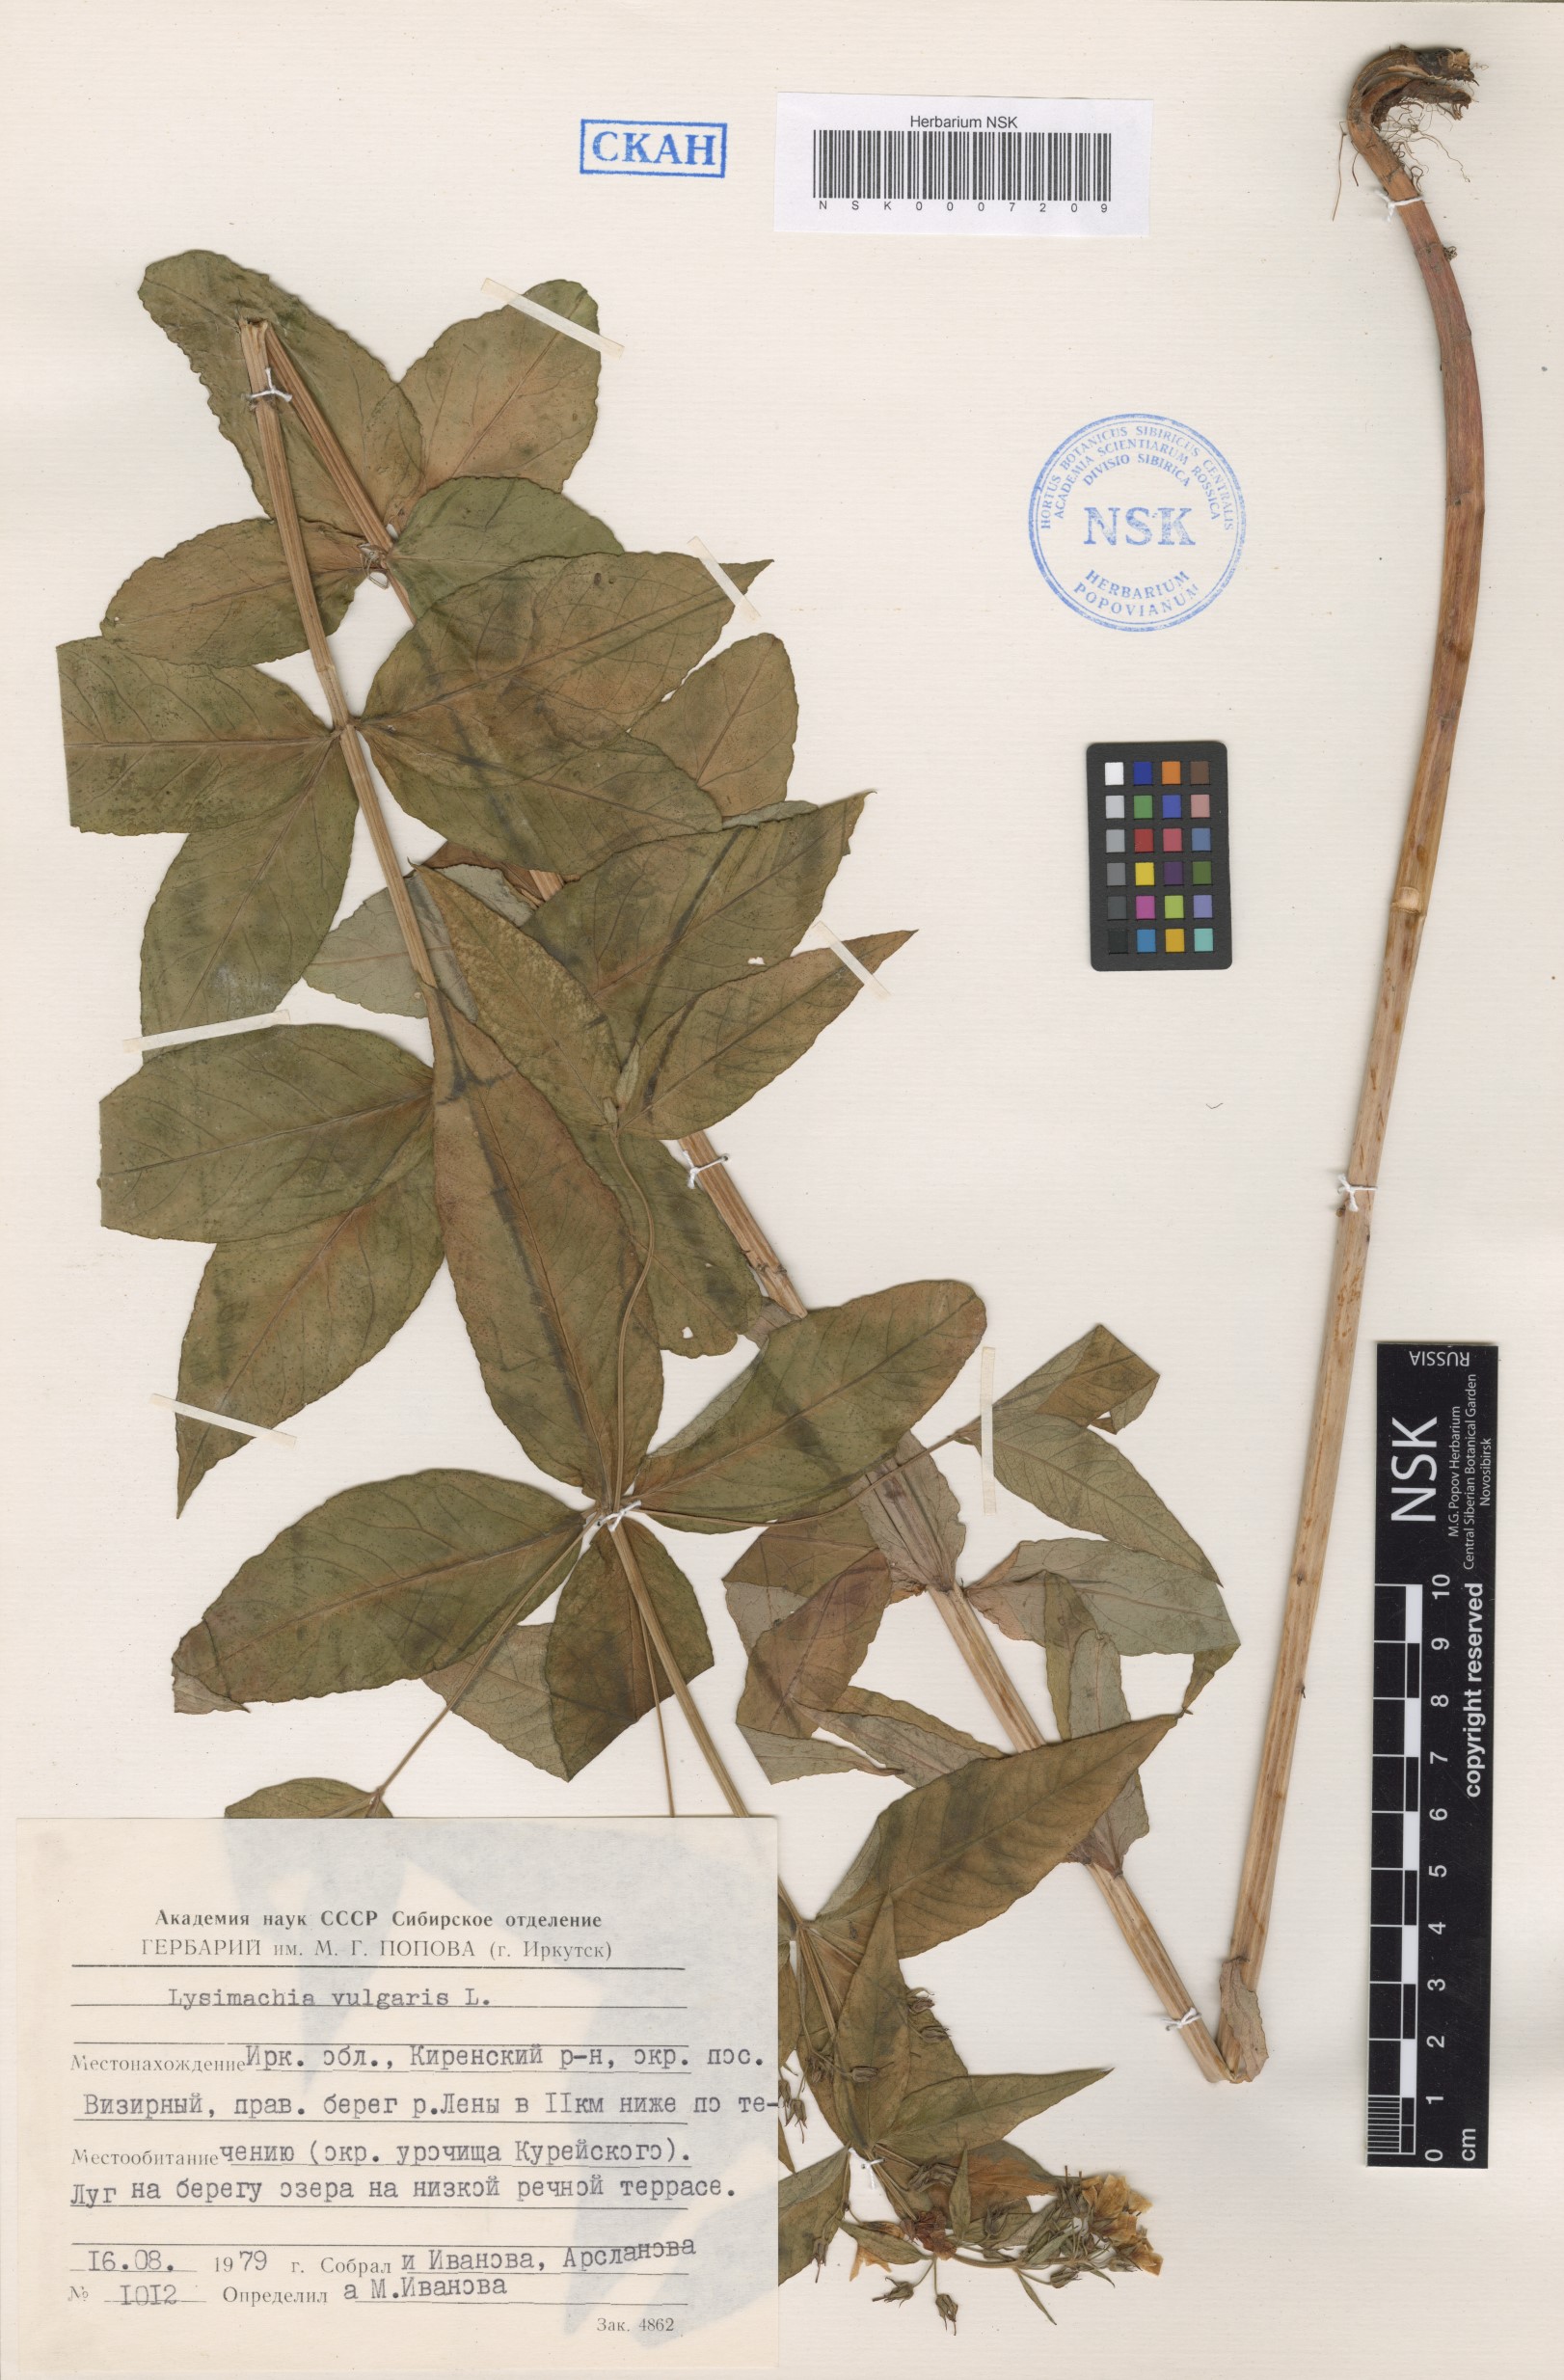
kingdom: Plantae
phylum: Tracheophyta
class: Magnoliopsida
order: Ericales
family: Primulaceae
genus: Lysimachia
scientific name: Lysimachia vulgaris
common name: Yellow loosestrife
